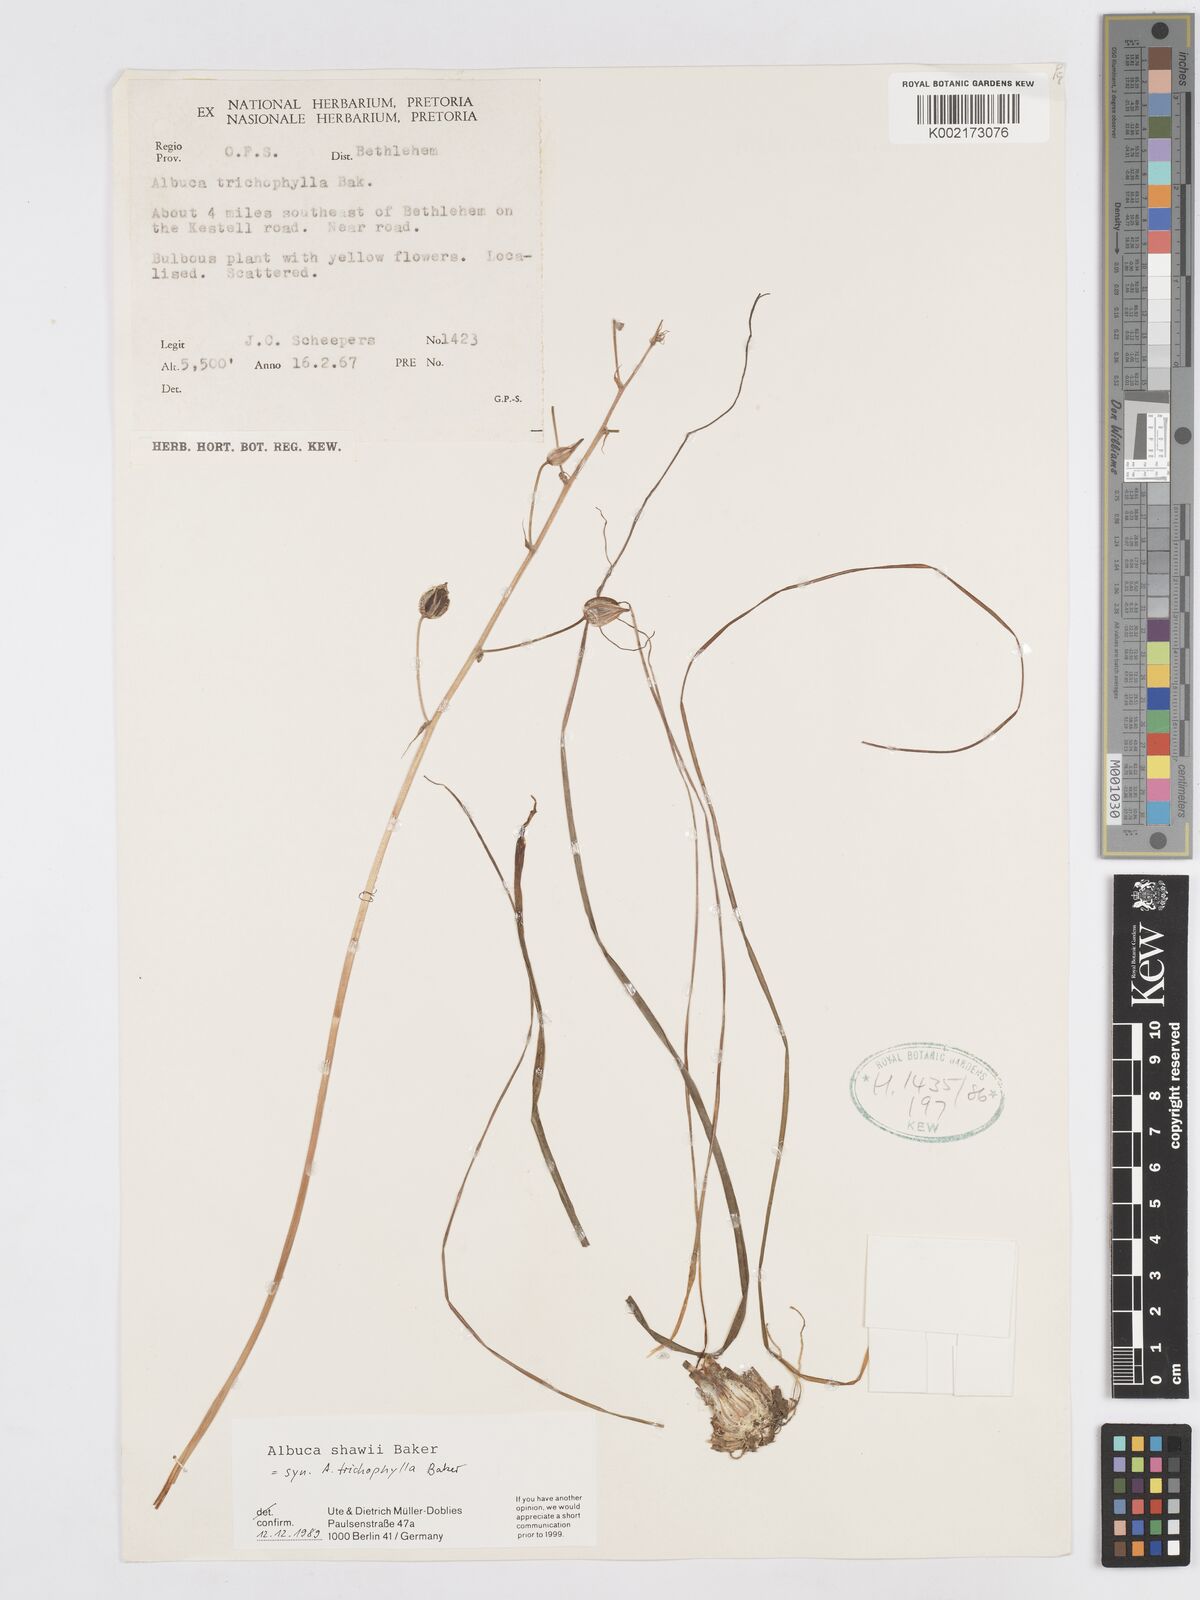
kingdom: Plantae
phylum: Tracheophyta
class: Liliopsida
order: Asparagales
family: Asparagaceae
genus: Albuca
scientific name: Albuca shawii
